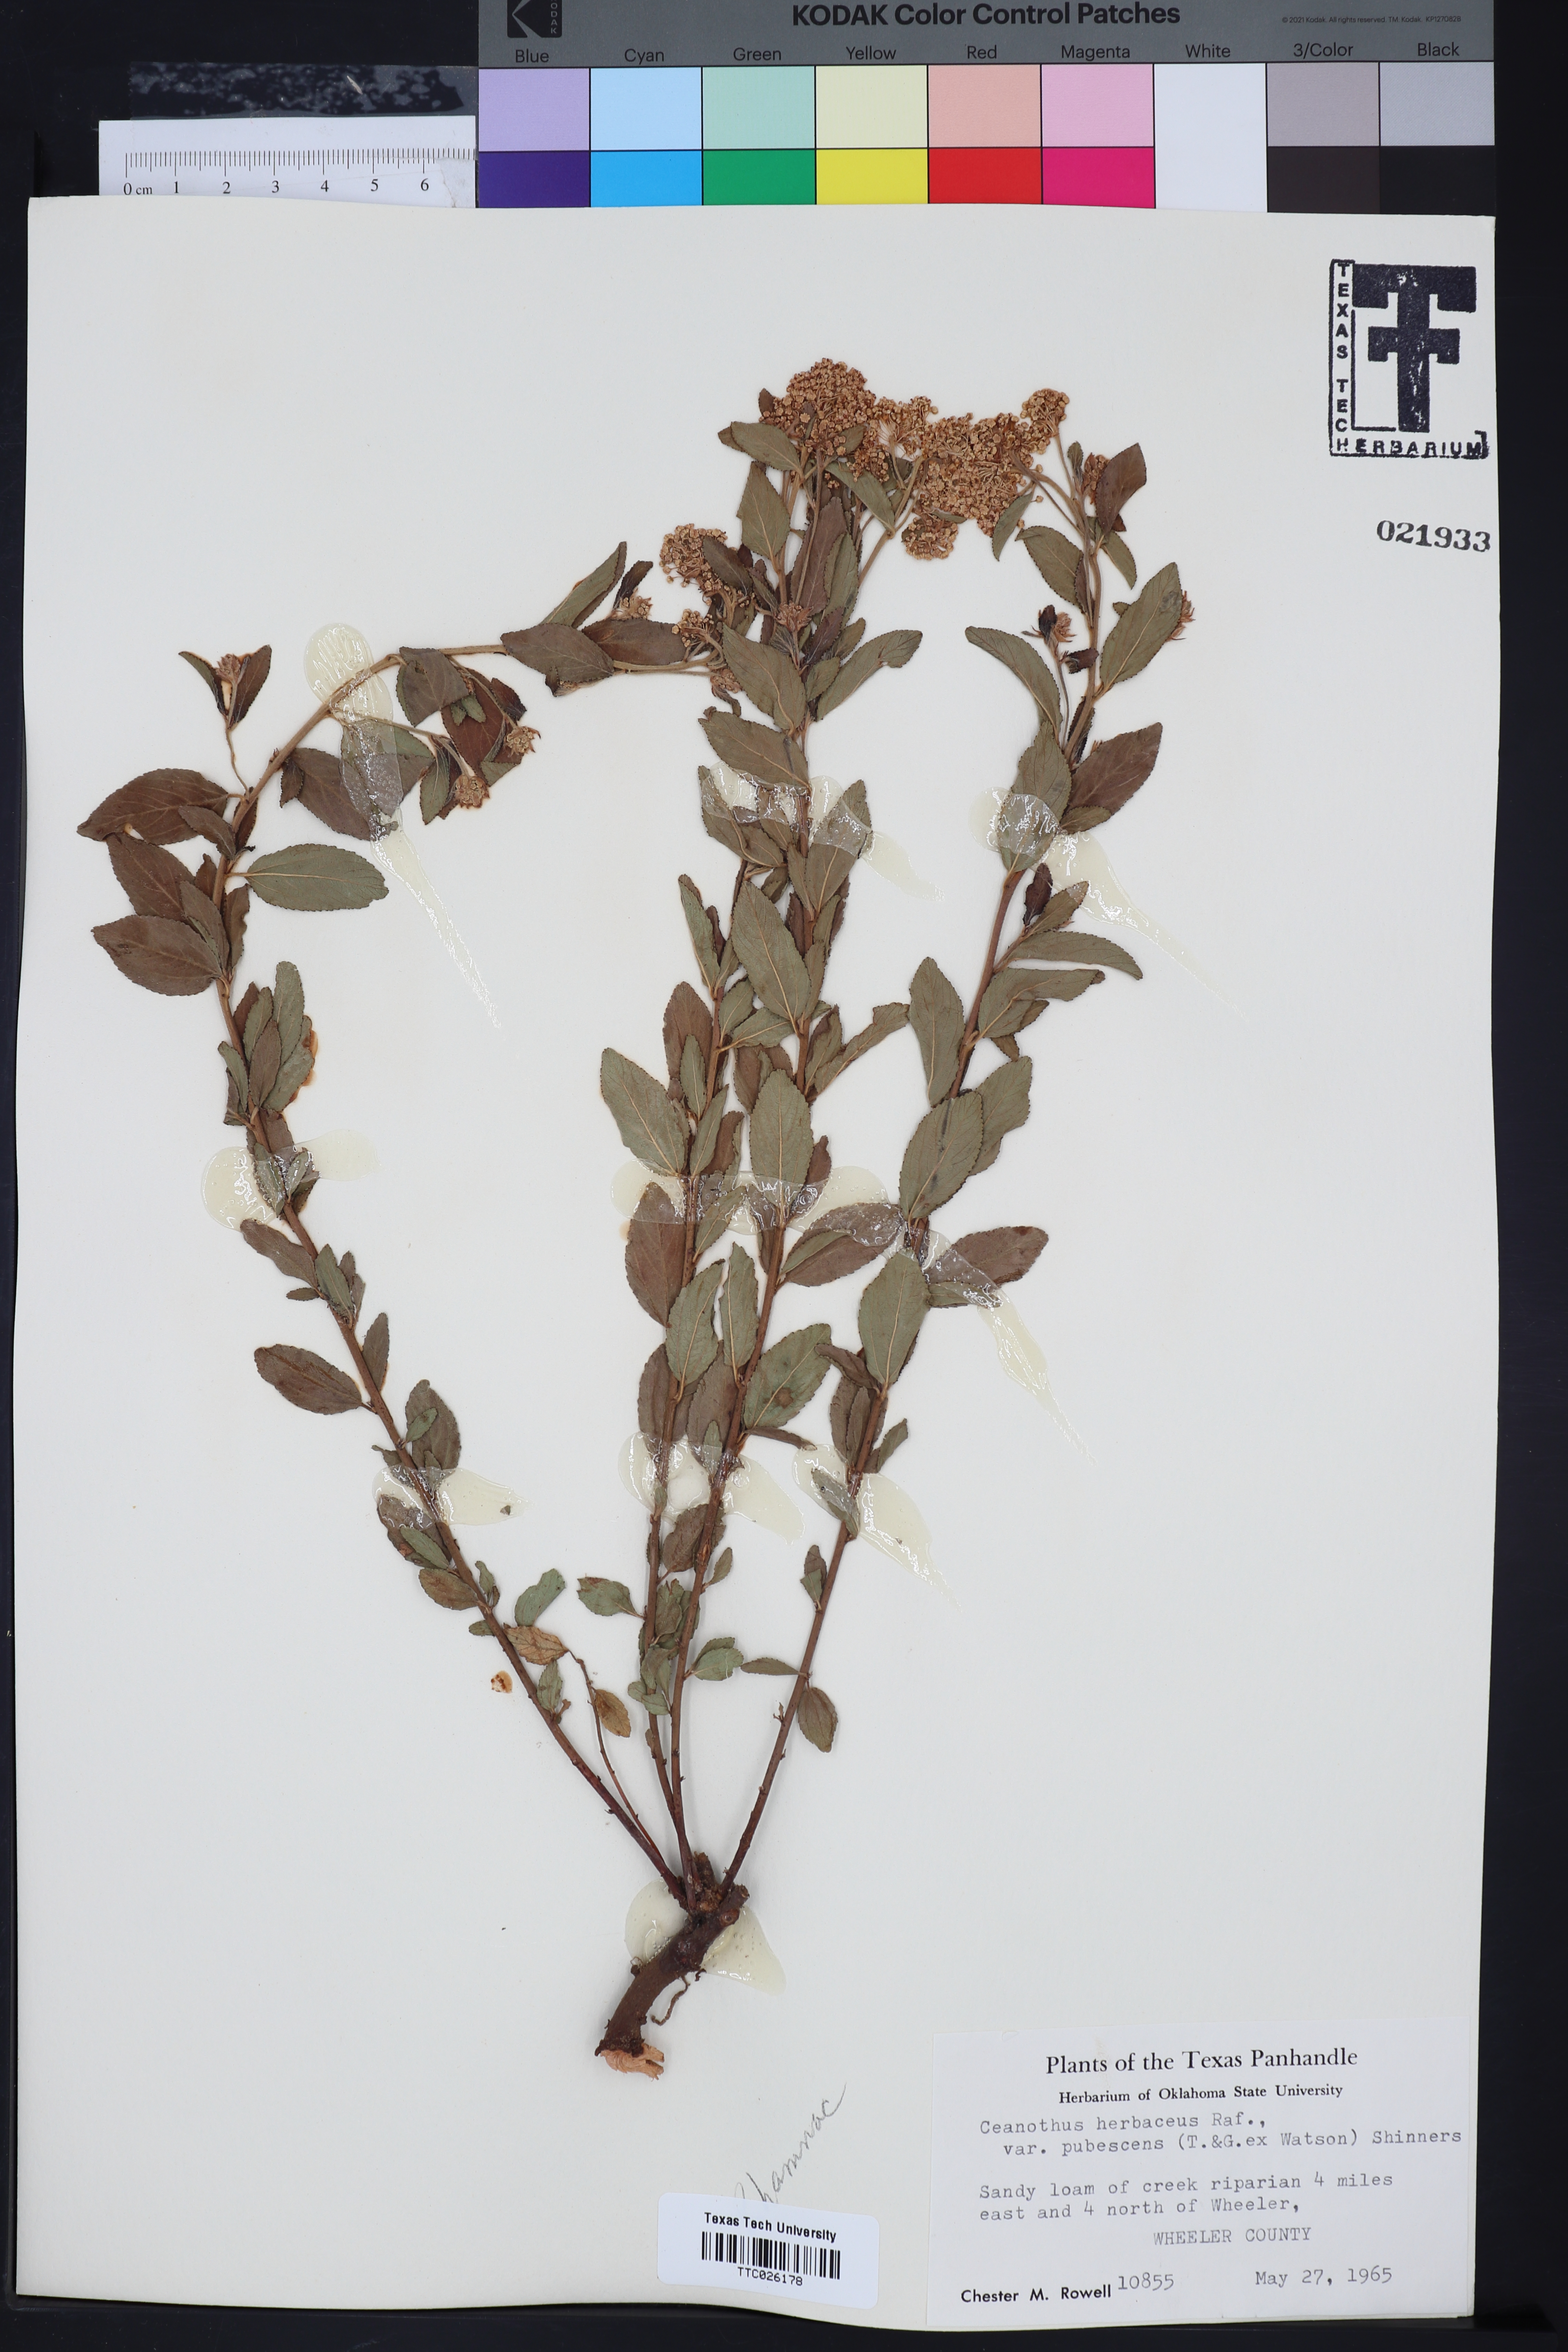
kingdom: Plantae
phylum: Tracheophyta
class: Magnoliopsida
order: Rosales
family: Rhamnaceae
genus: Ceanothus
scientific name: Ceanothus herbaceus
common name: Inland ceanothus
